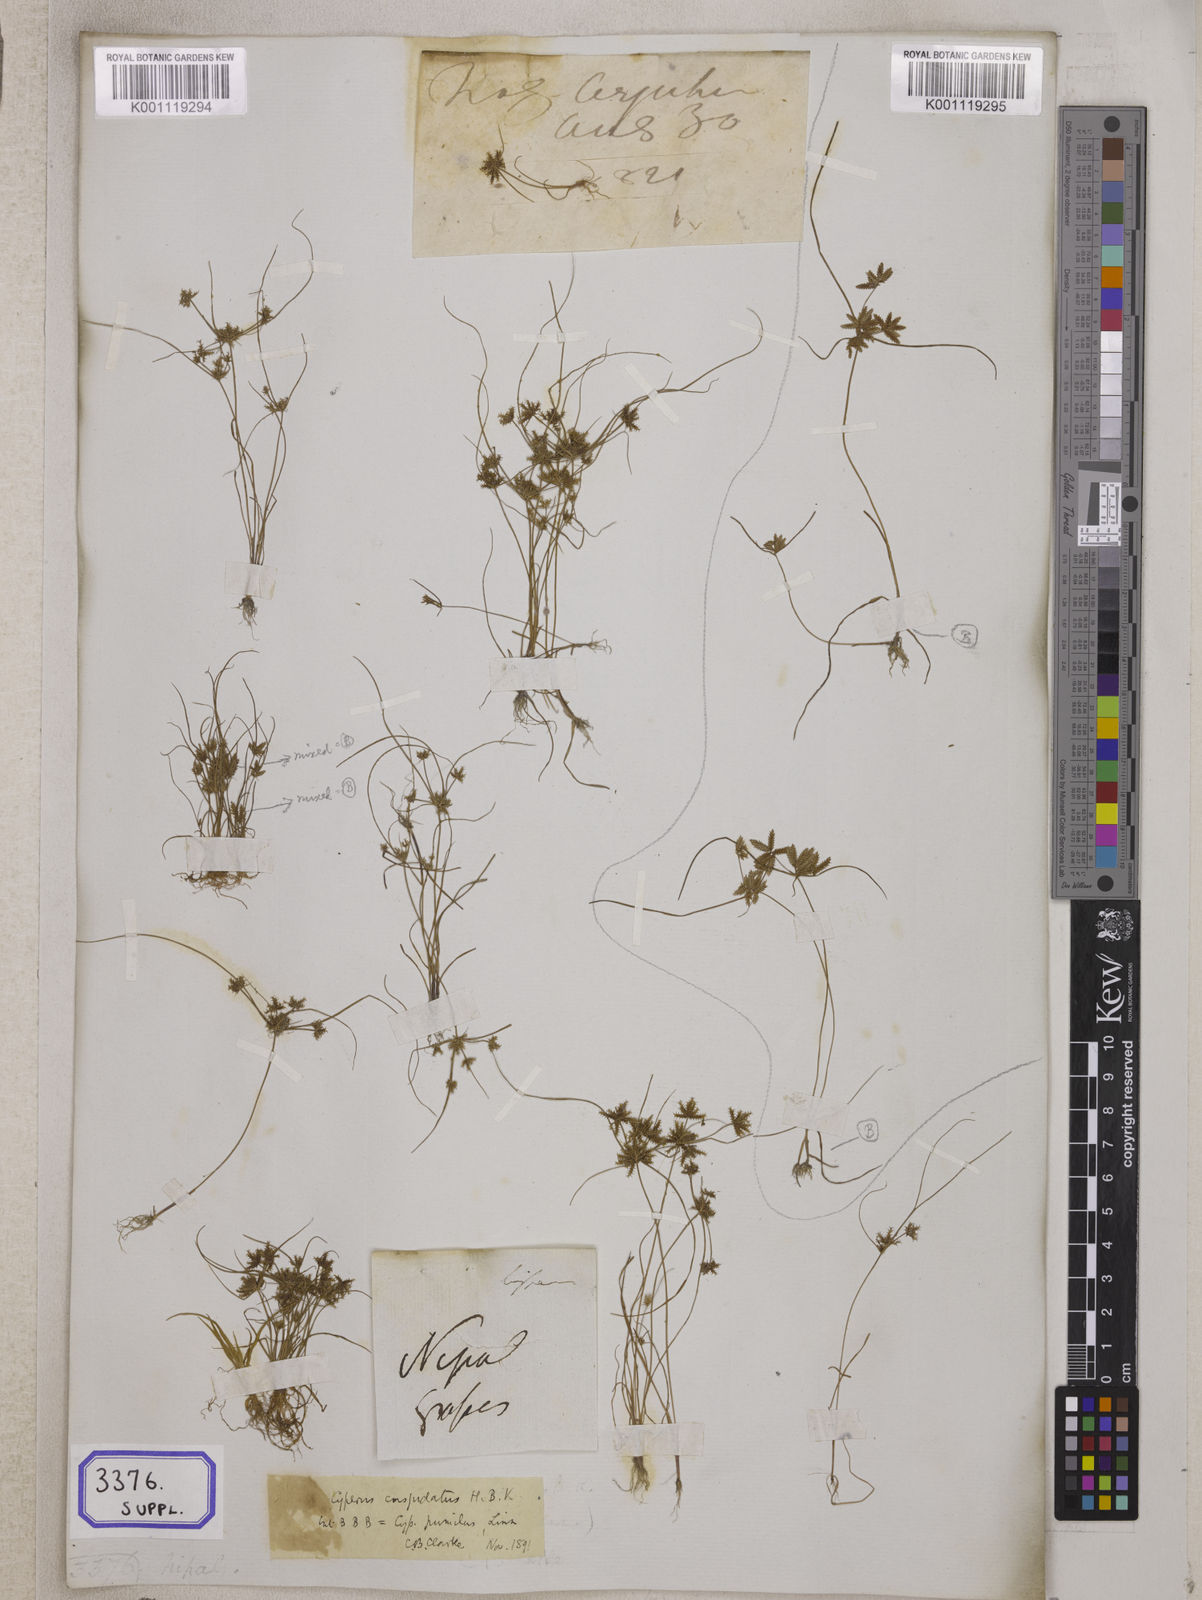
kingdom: Plantae
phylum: Tracheophyta
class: Liliopsida
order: Poales
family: Cyperaceae
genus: Cyperus
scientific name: Cyperus
